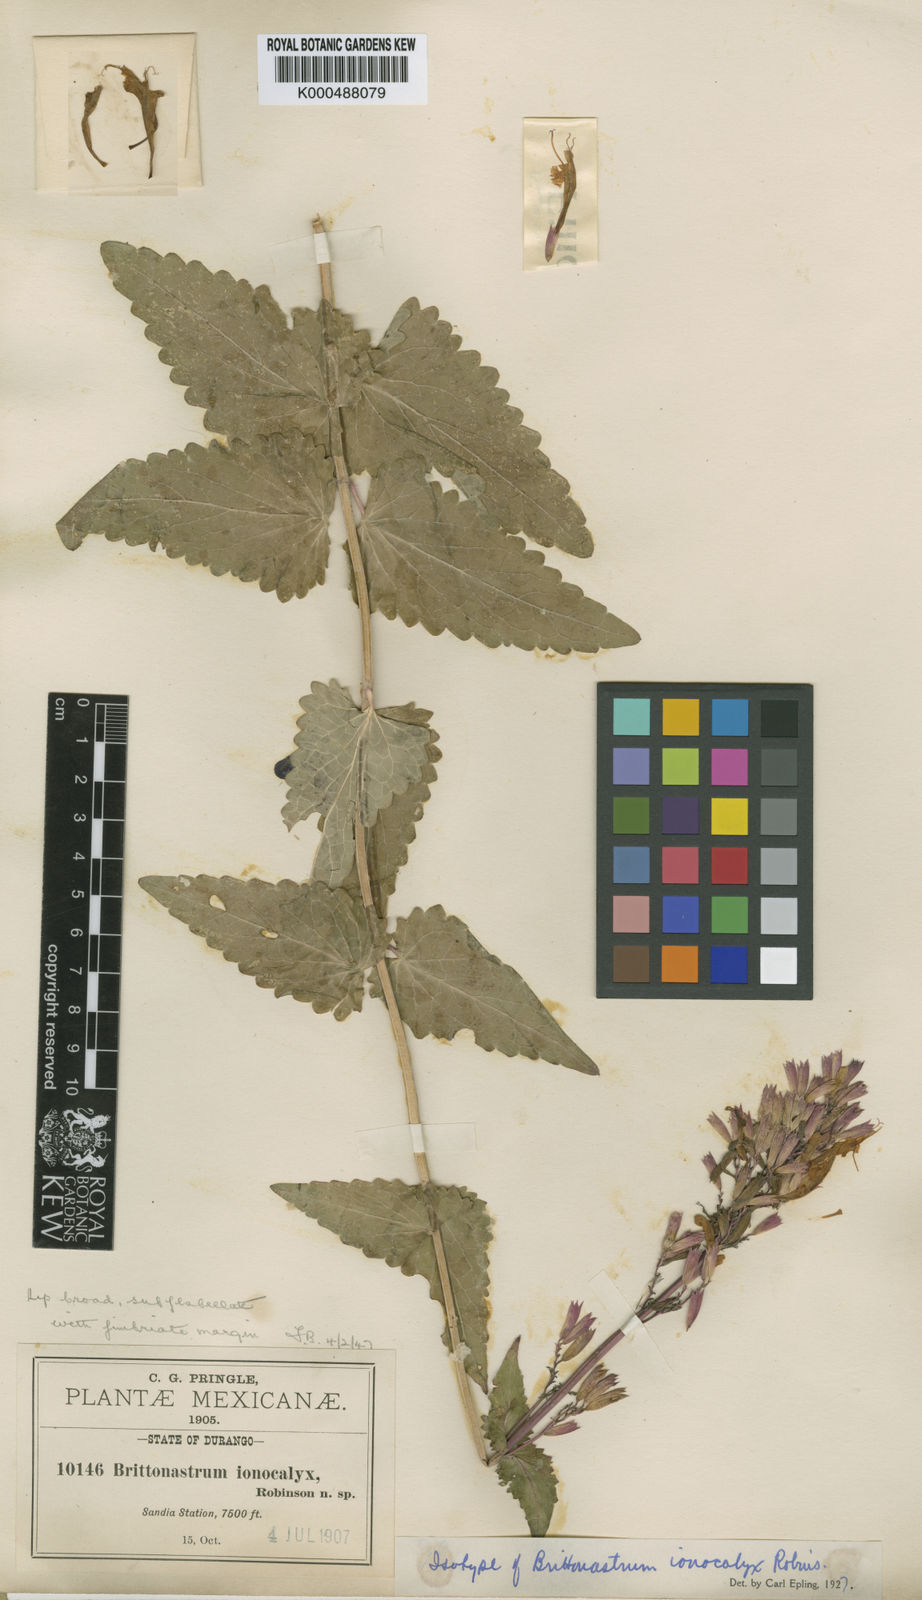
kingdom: Plantae
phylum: Tracheophyta
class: Magnoliopsida
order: Lamiales
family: Lamiaceae
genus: Agastache
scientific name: Agastache pallida
